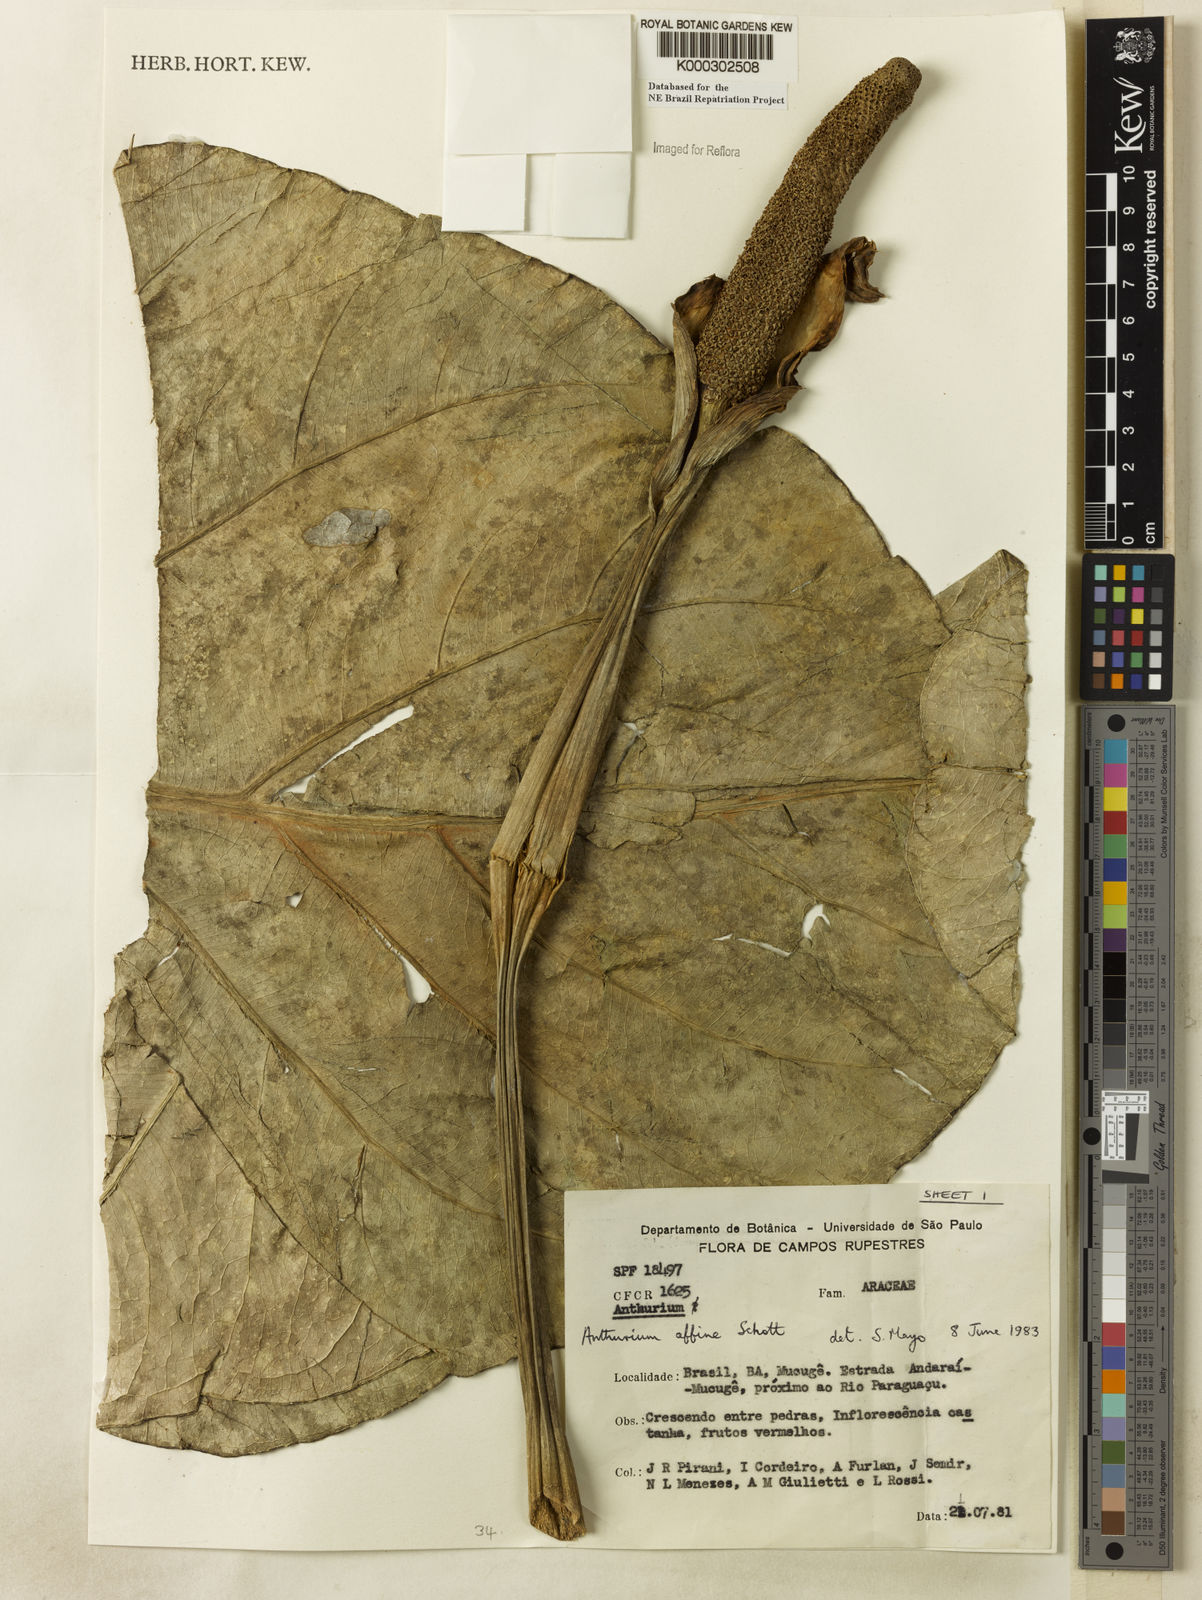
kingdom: Plantae
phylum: Tracheophyta
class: Liliopsida
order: Alismatales
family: Araceae
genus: Anthurium
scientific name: Anthurium affine
